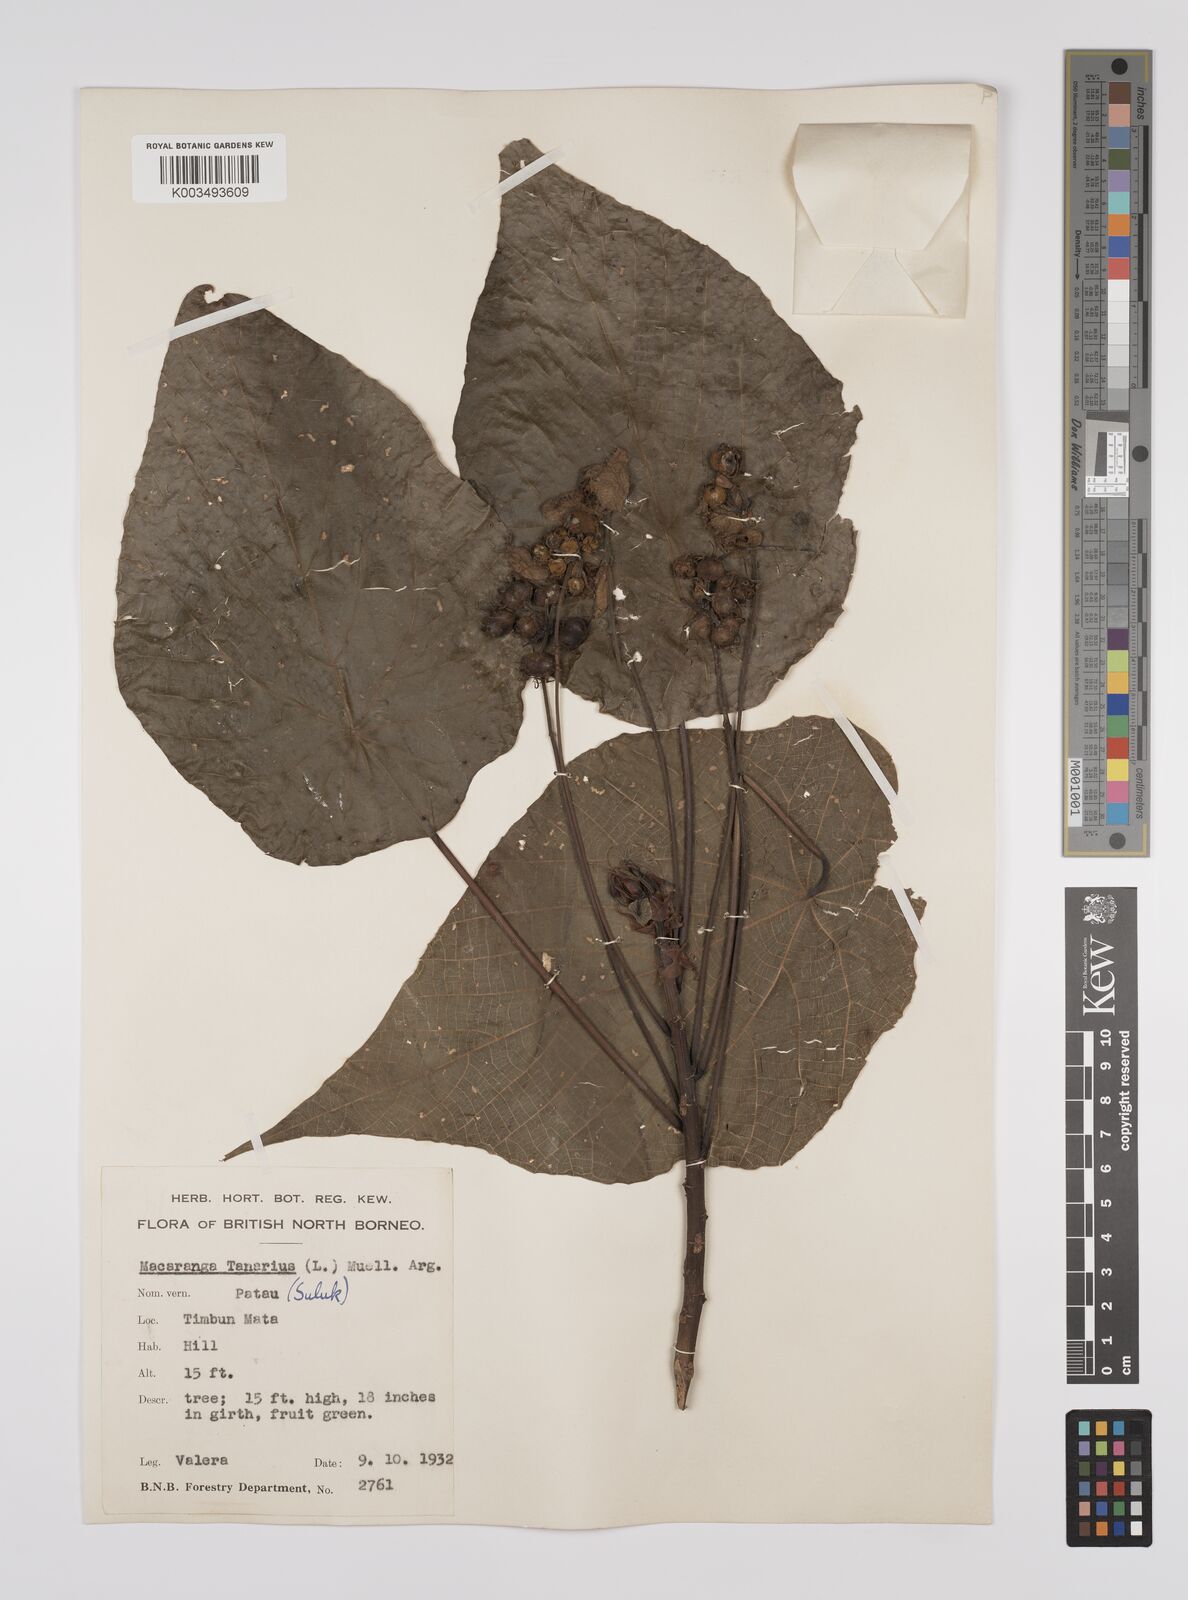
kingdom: Plantae
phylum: Tracheophyta
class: Magnoliopsida
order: Malpighiales
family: Euphorbiaceae
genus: Macaranga
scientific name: Macaranga tanarius
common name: Parasol leaf tree
